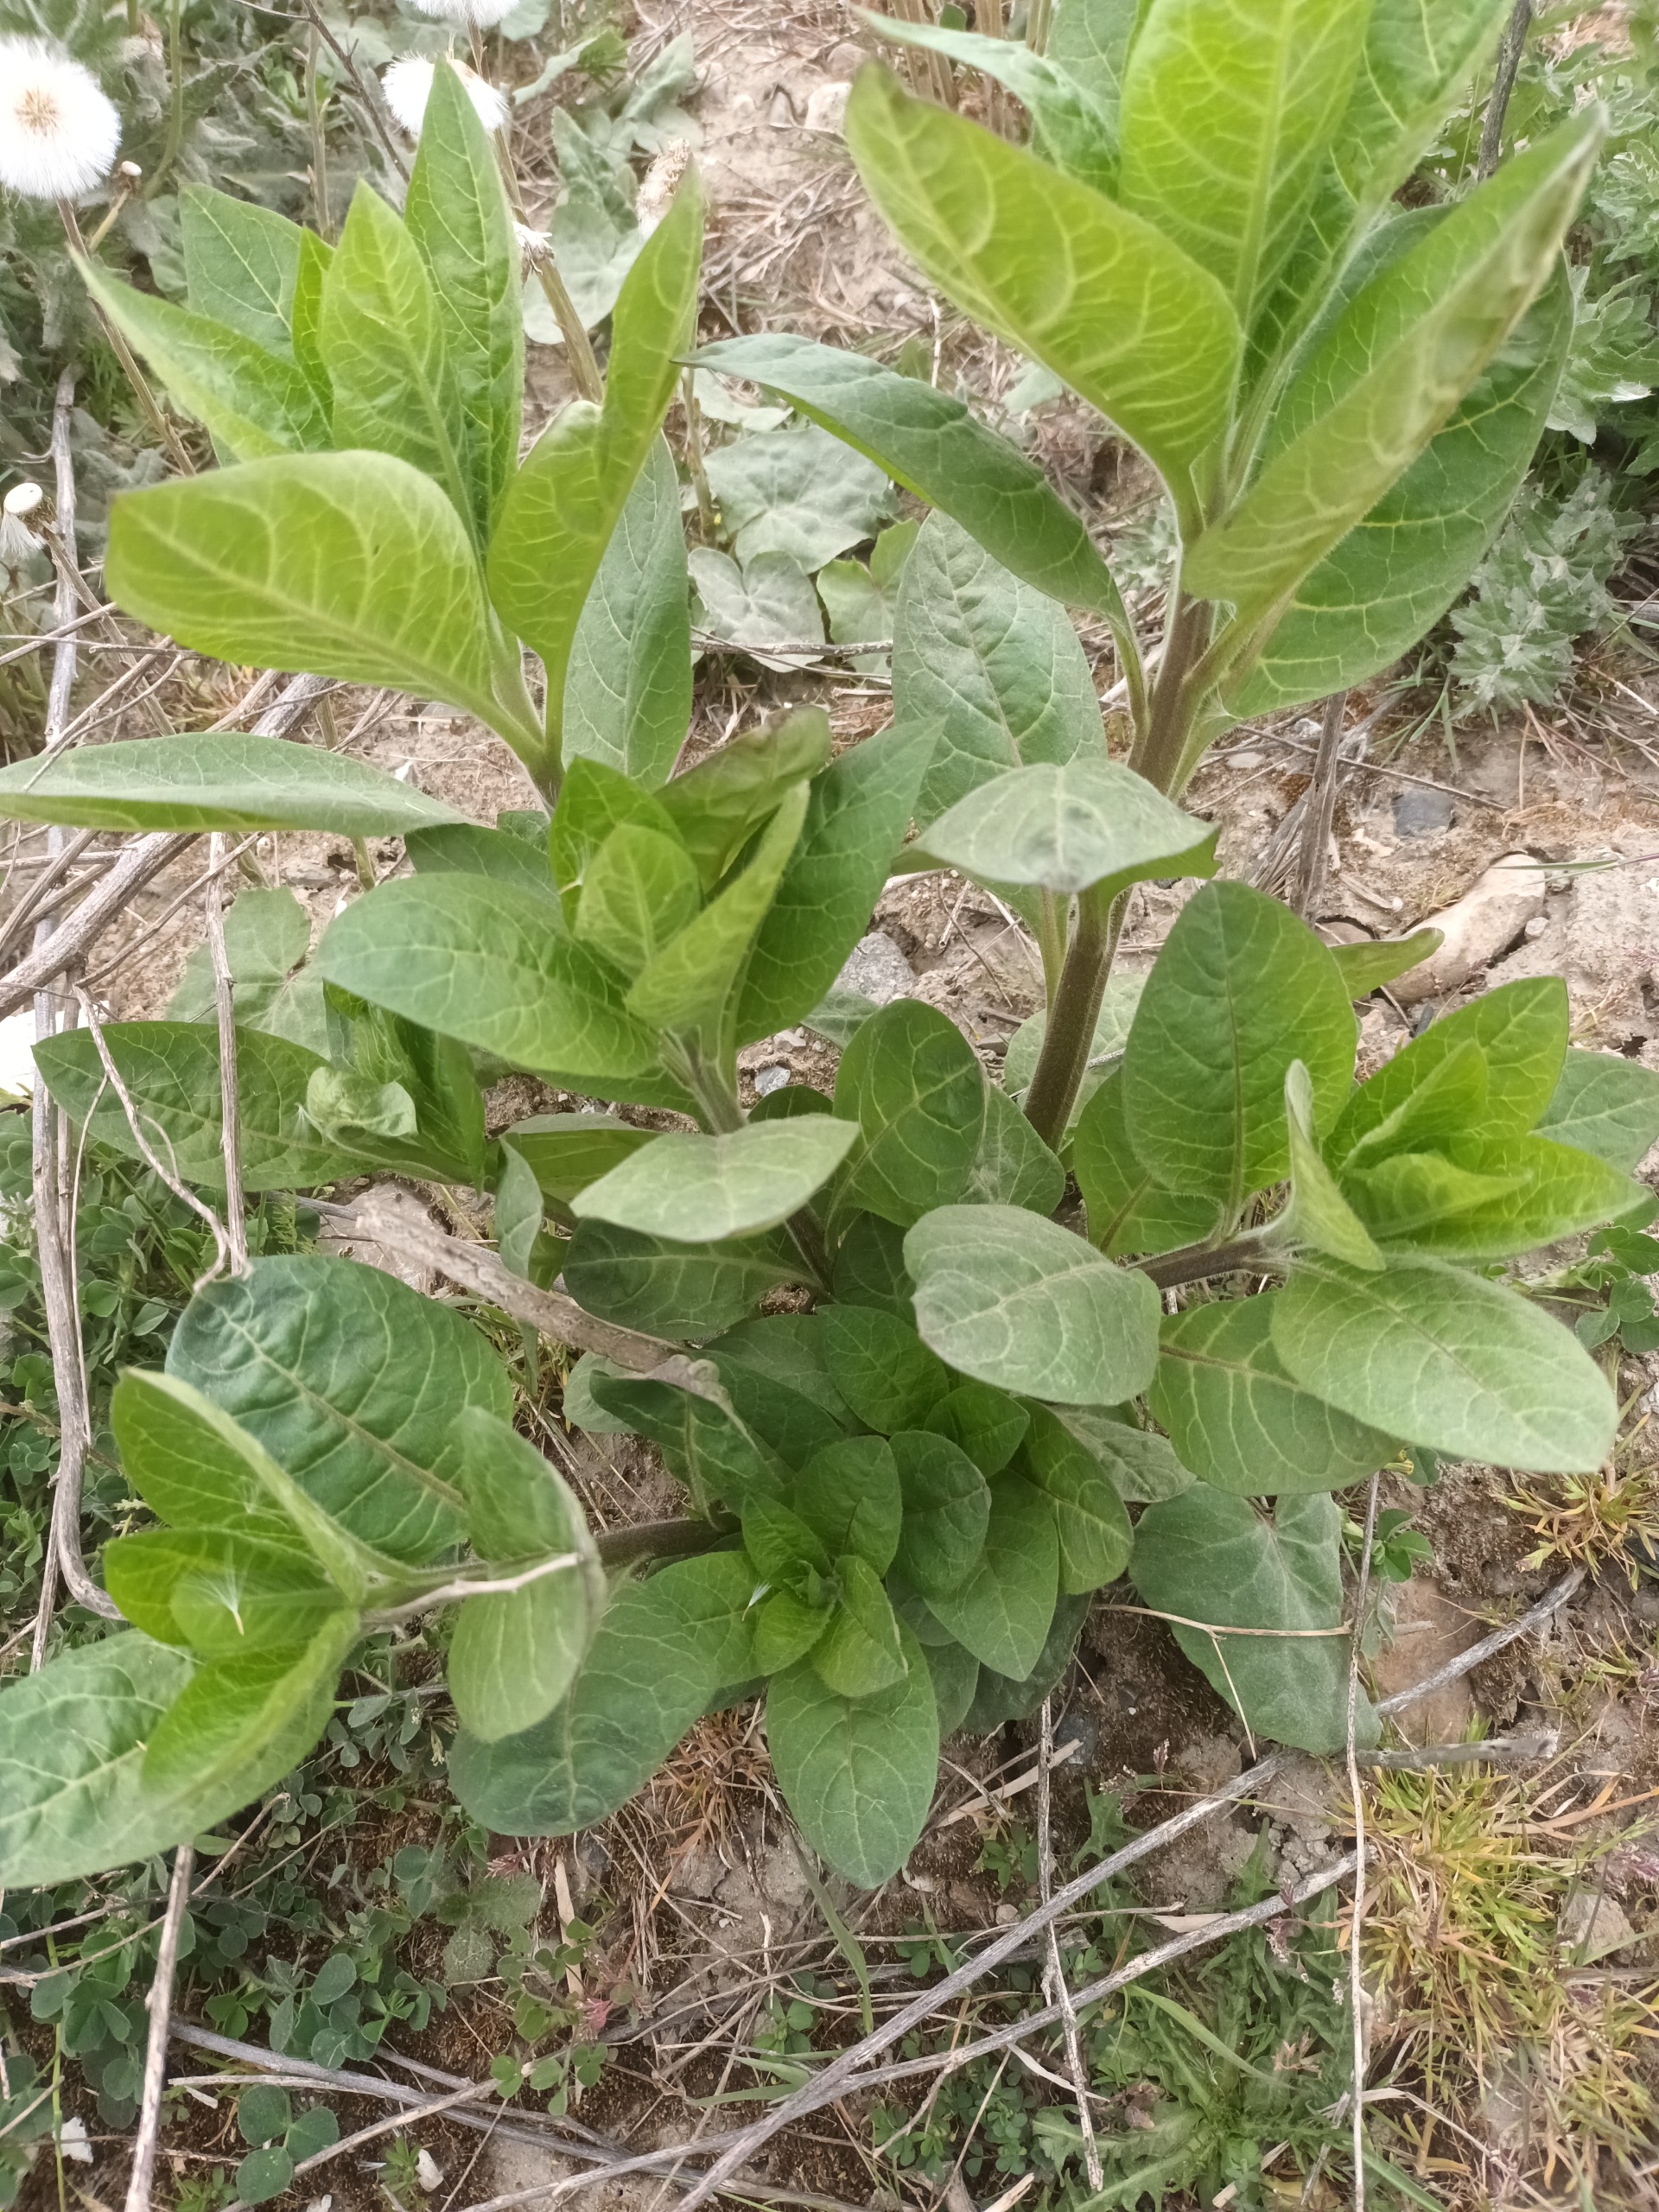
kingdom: Plantae
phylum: Tracheophyta
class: Magnoliopsida
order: Solanales
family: Solanaceae
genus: Atropa
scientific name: Atropa belladonna
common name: Galnebær
